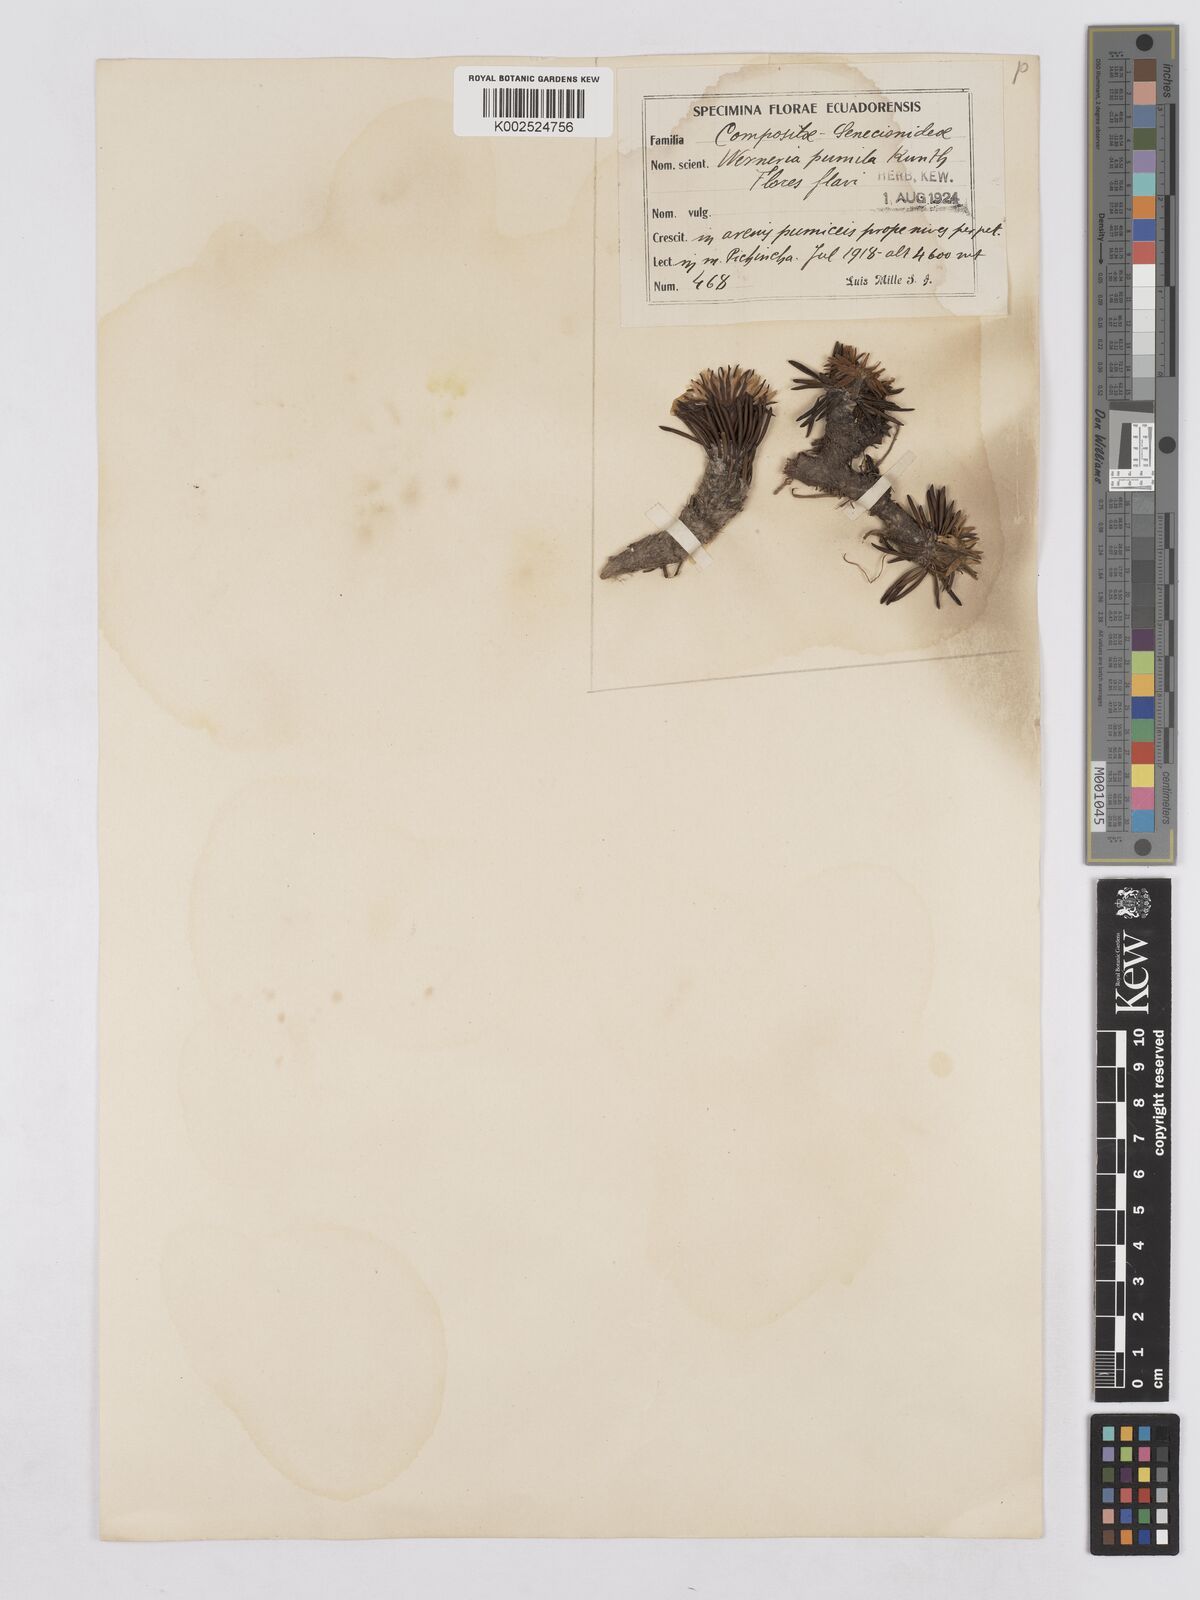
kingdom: Plantae
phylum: Tracheophyta
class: Magnoliopsida
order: Asterales
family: Asteraceae
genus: Rockhausenia
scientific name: Rockhausenia pumila
